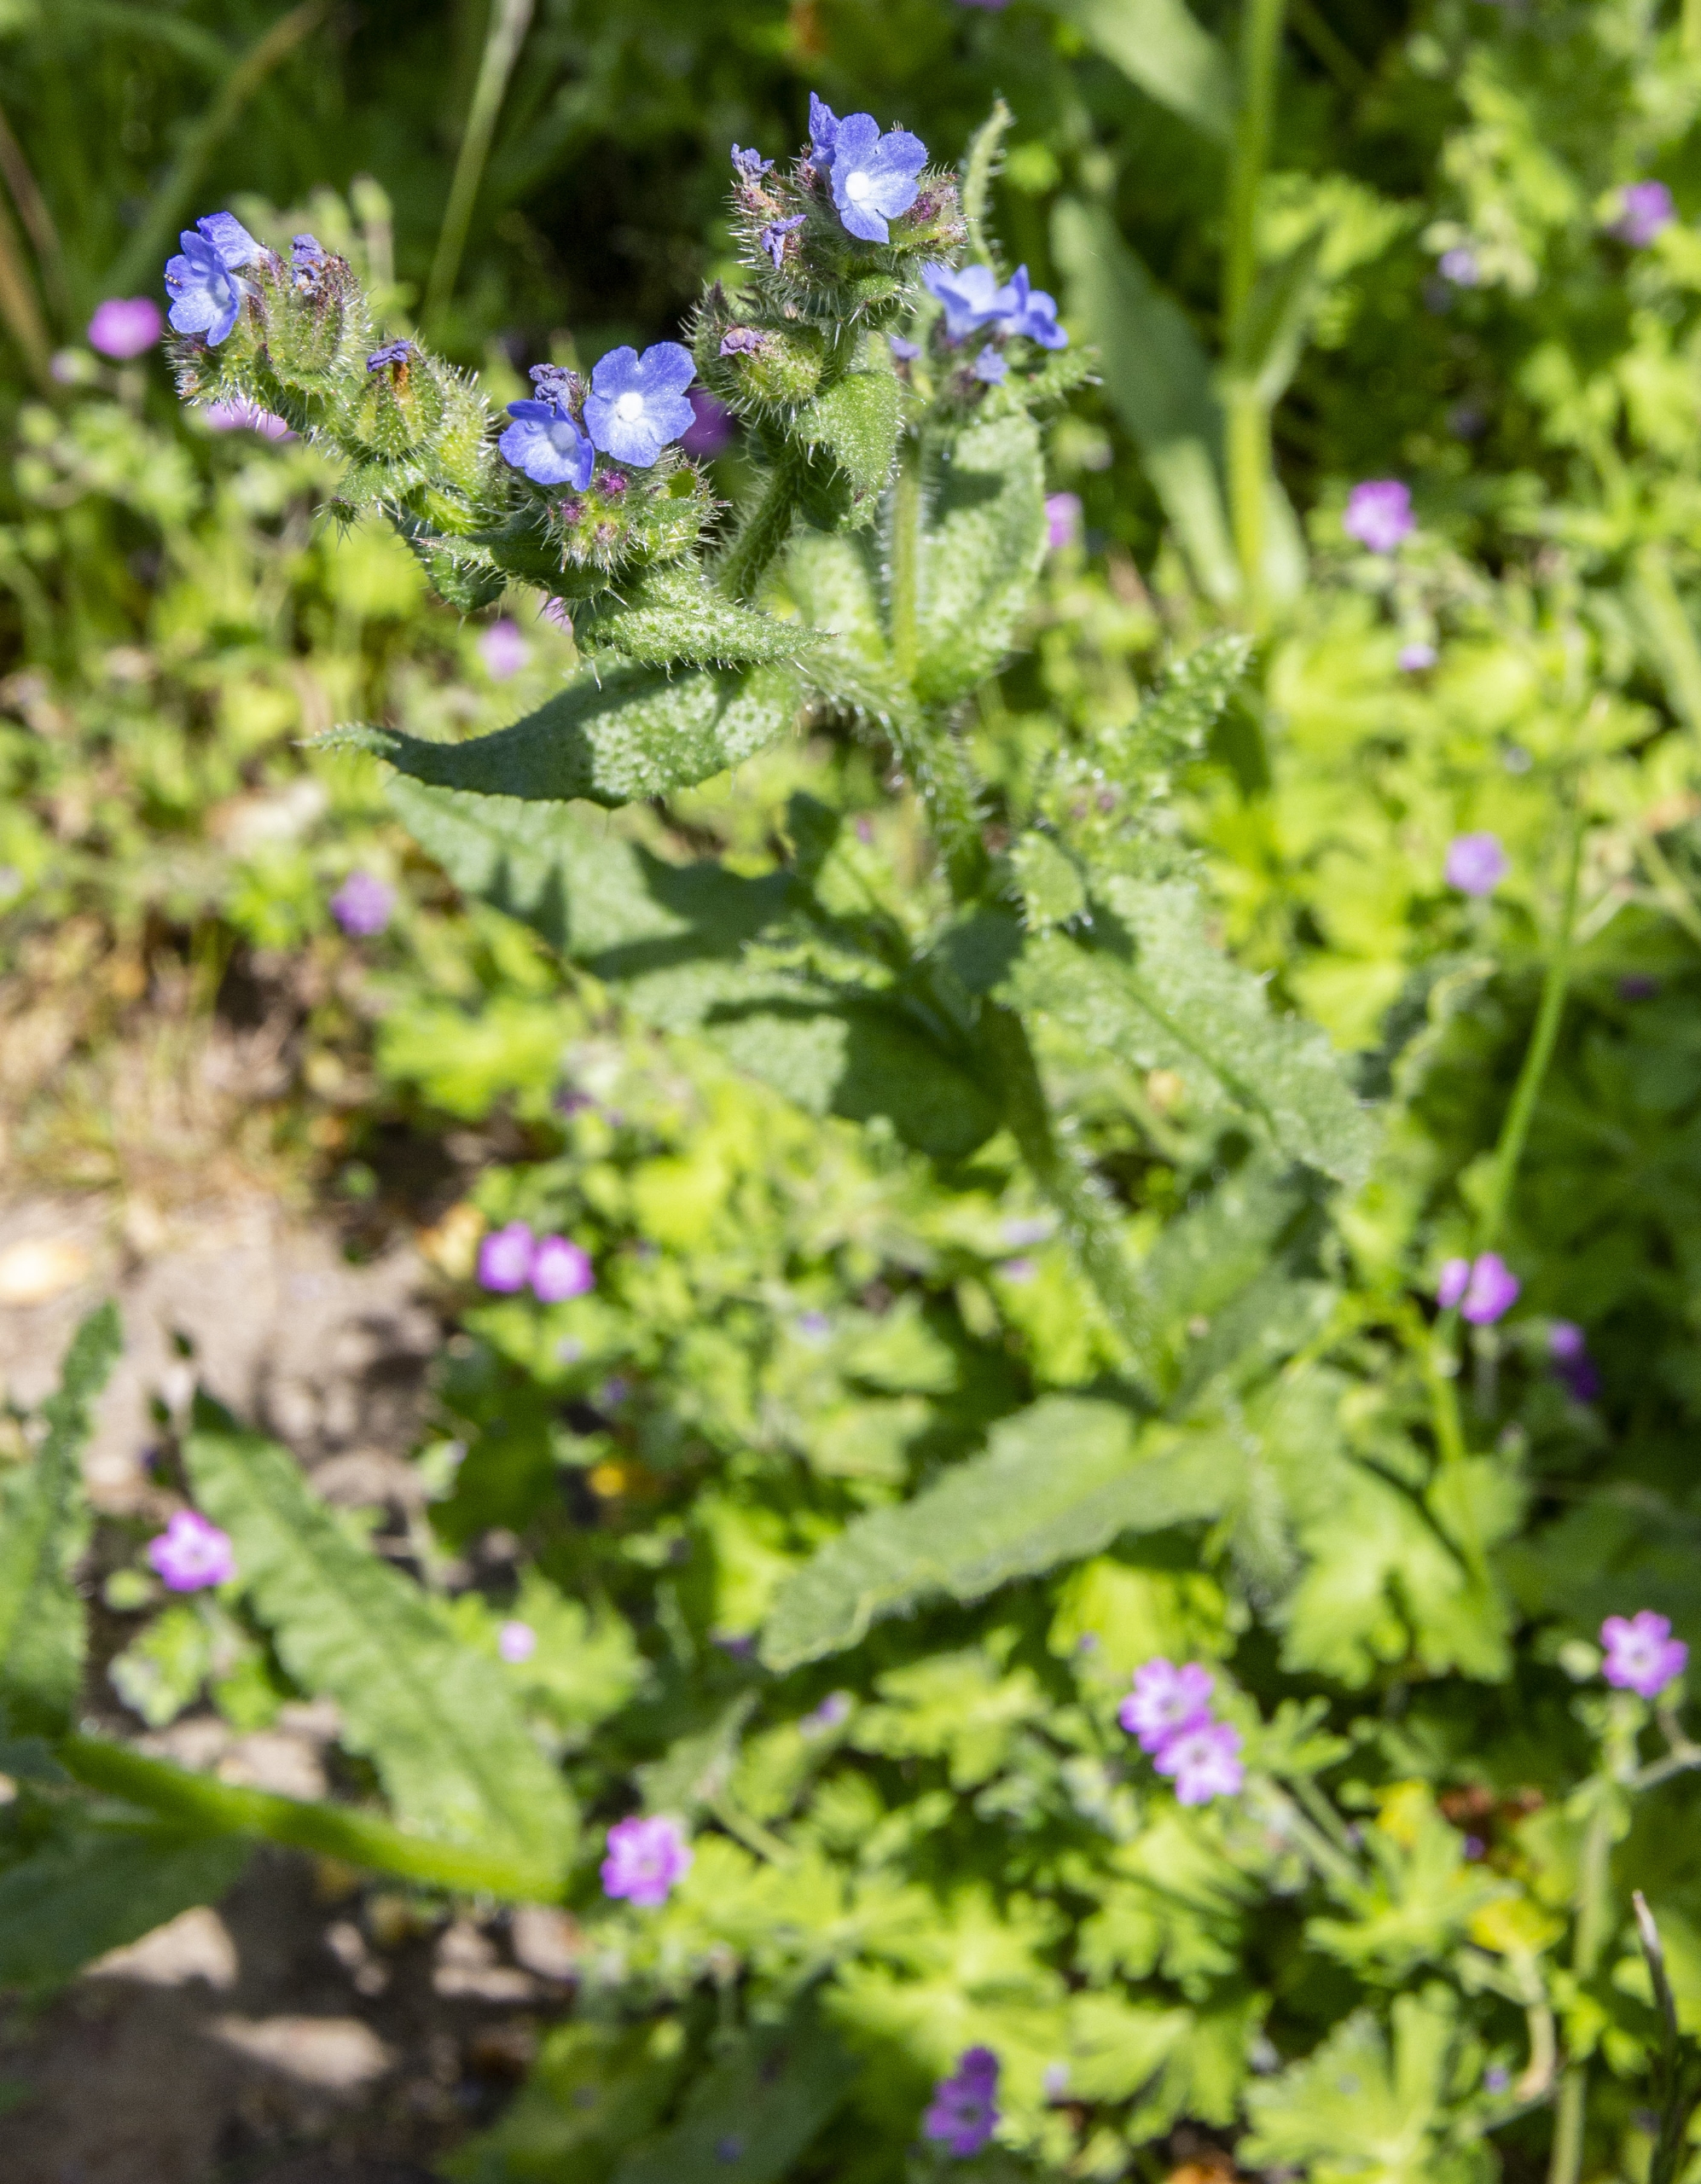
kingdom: Plantae
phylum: Tracheophyta
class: Magnoliopsida
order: Boraginales
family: Boraginaceae
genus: Lycopsis
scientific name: Lycopsis arvensis
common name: Krumhals
